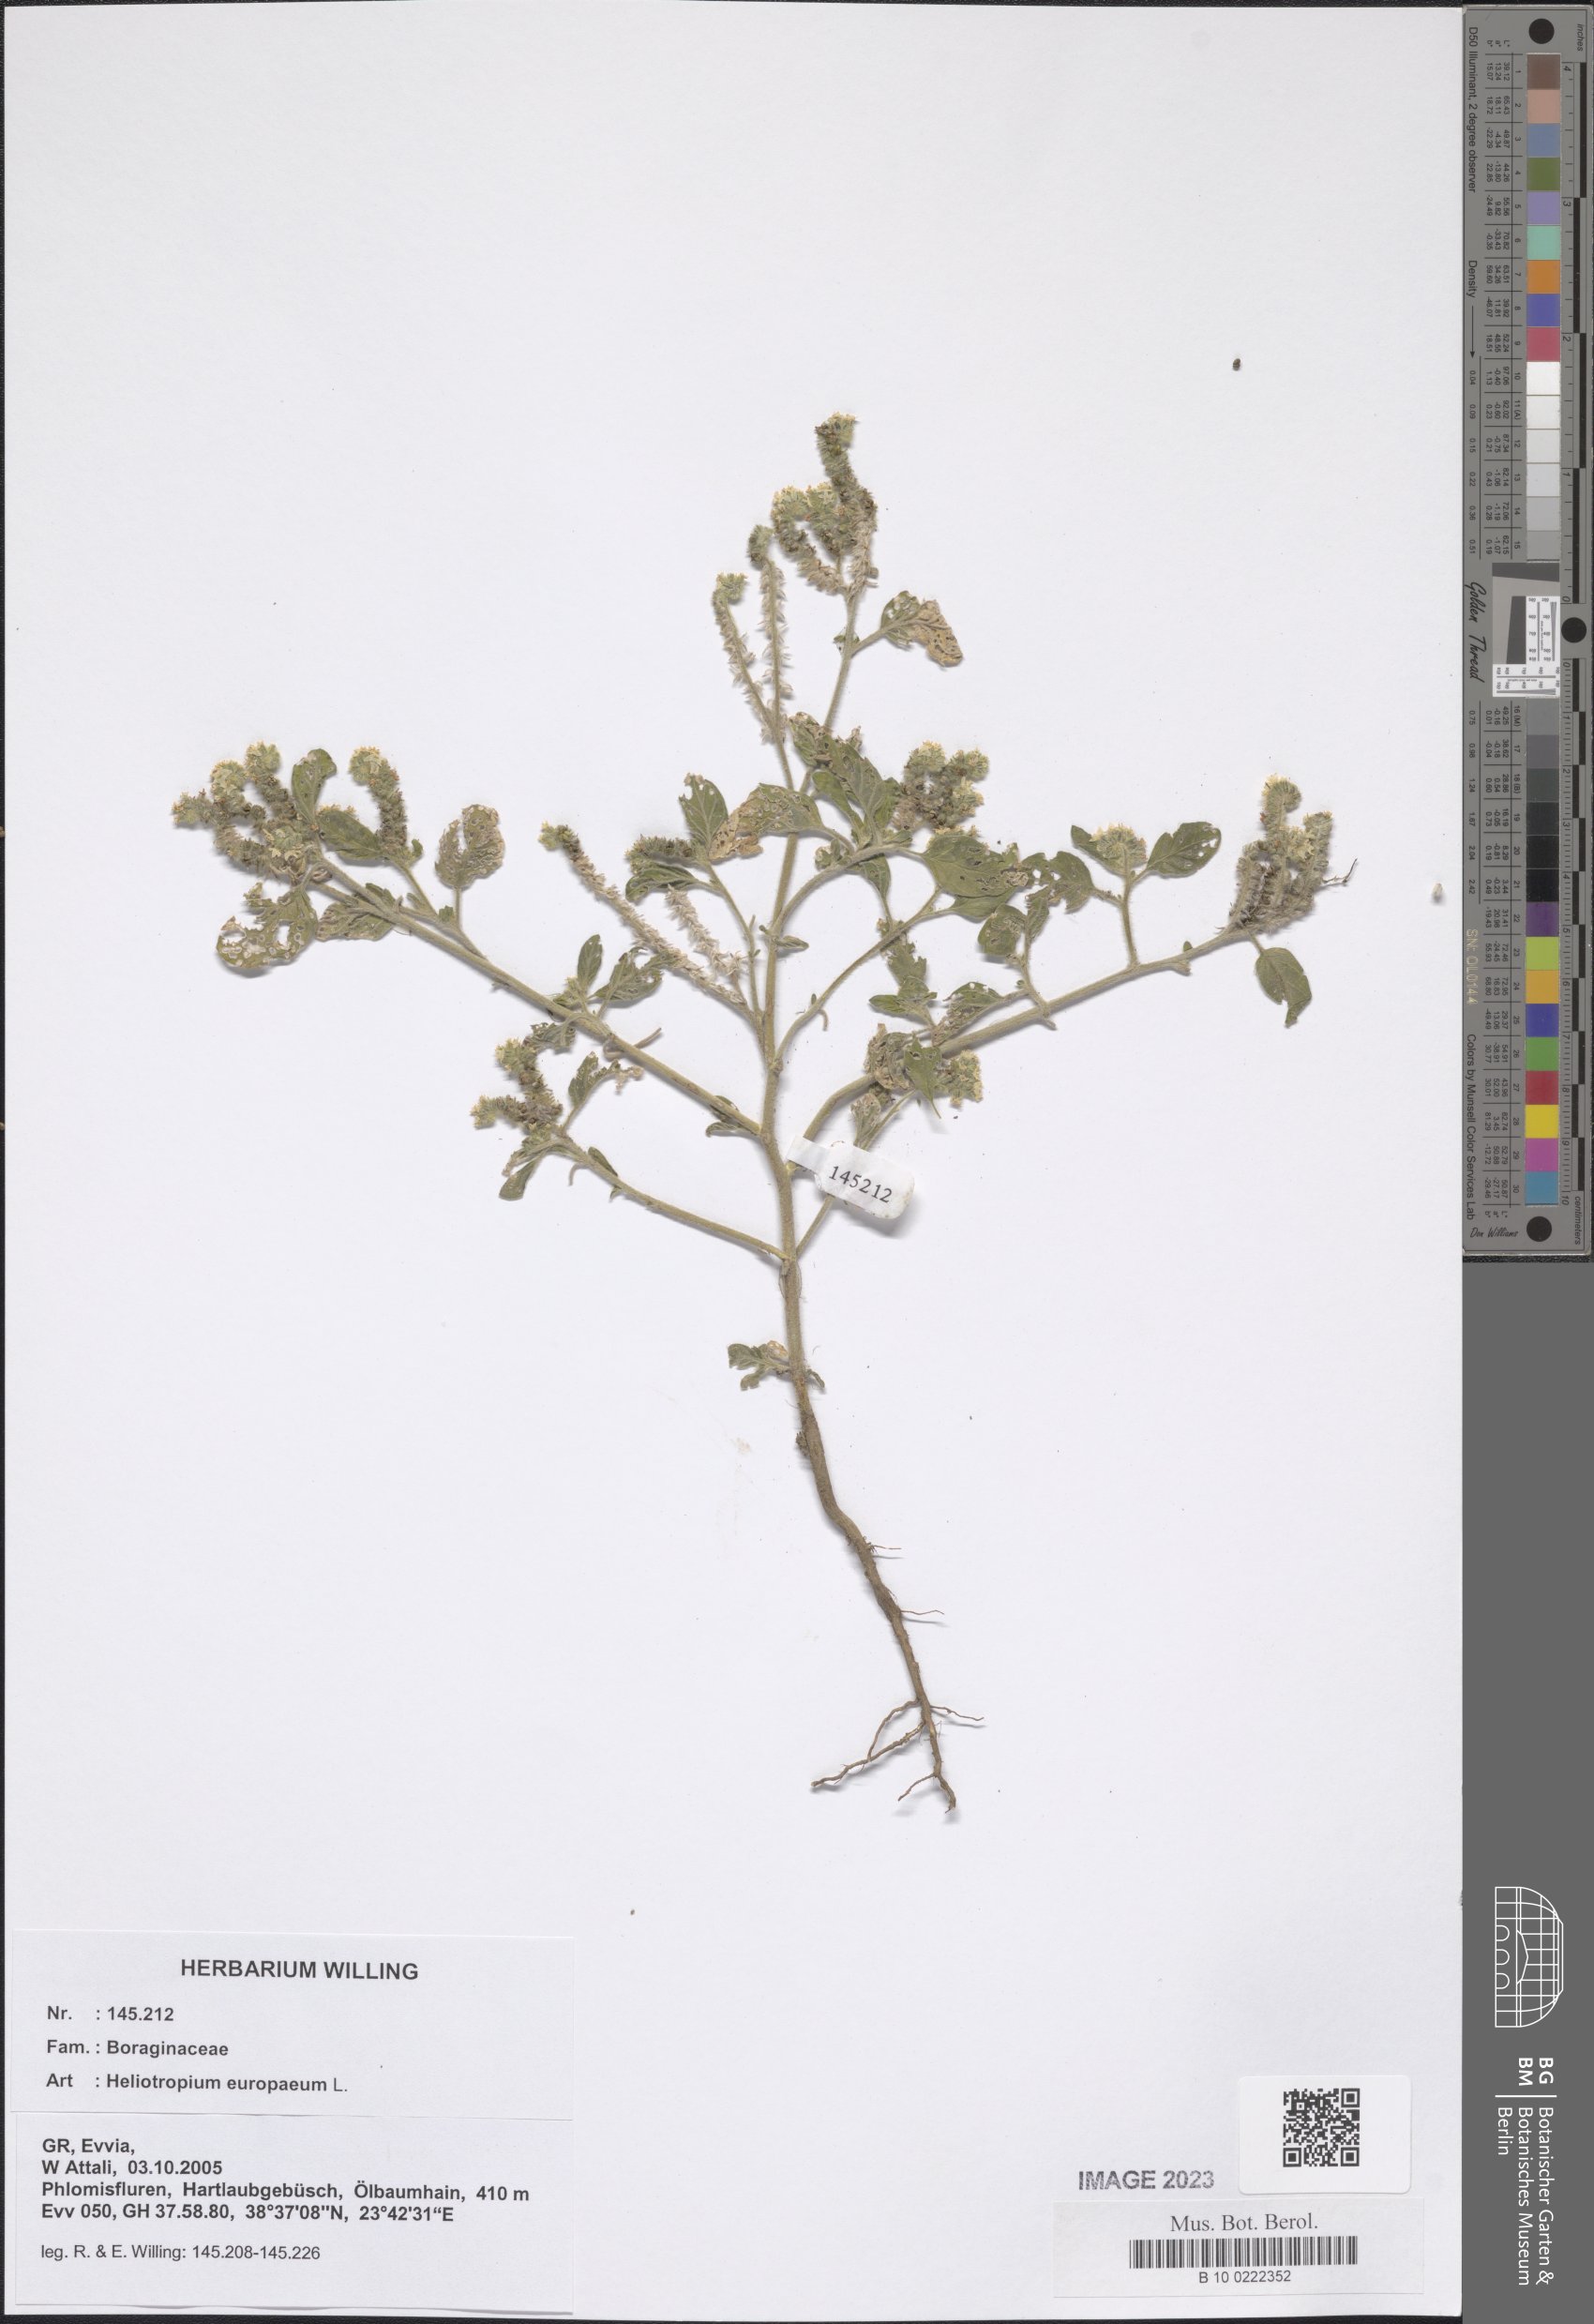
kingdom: Plantae
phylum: Tracheophyta
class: Magnoliopsida
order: Boraginales
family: Heliotropiaceae
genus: Heliotropium
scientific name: Heliotropium europaeum
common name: European heliotrope
